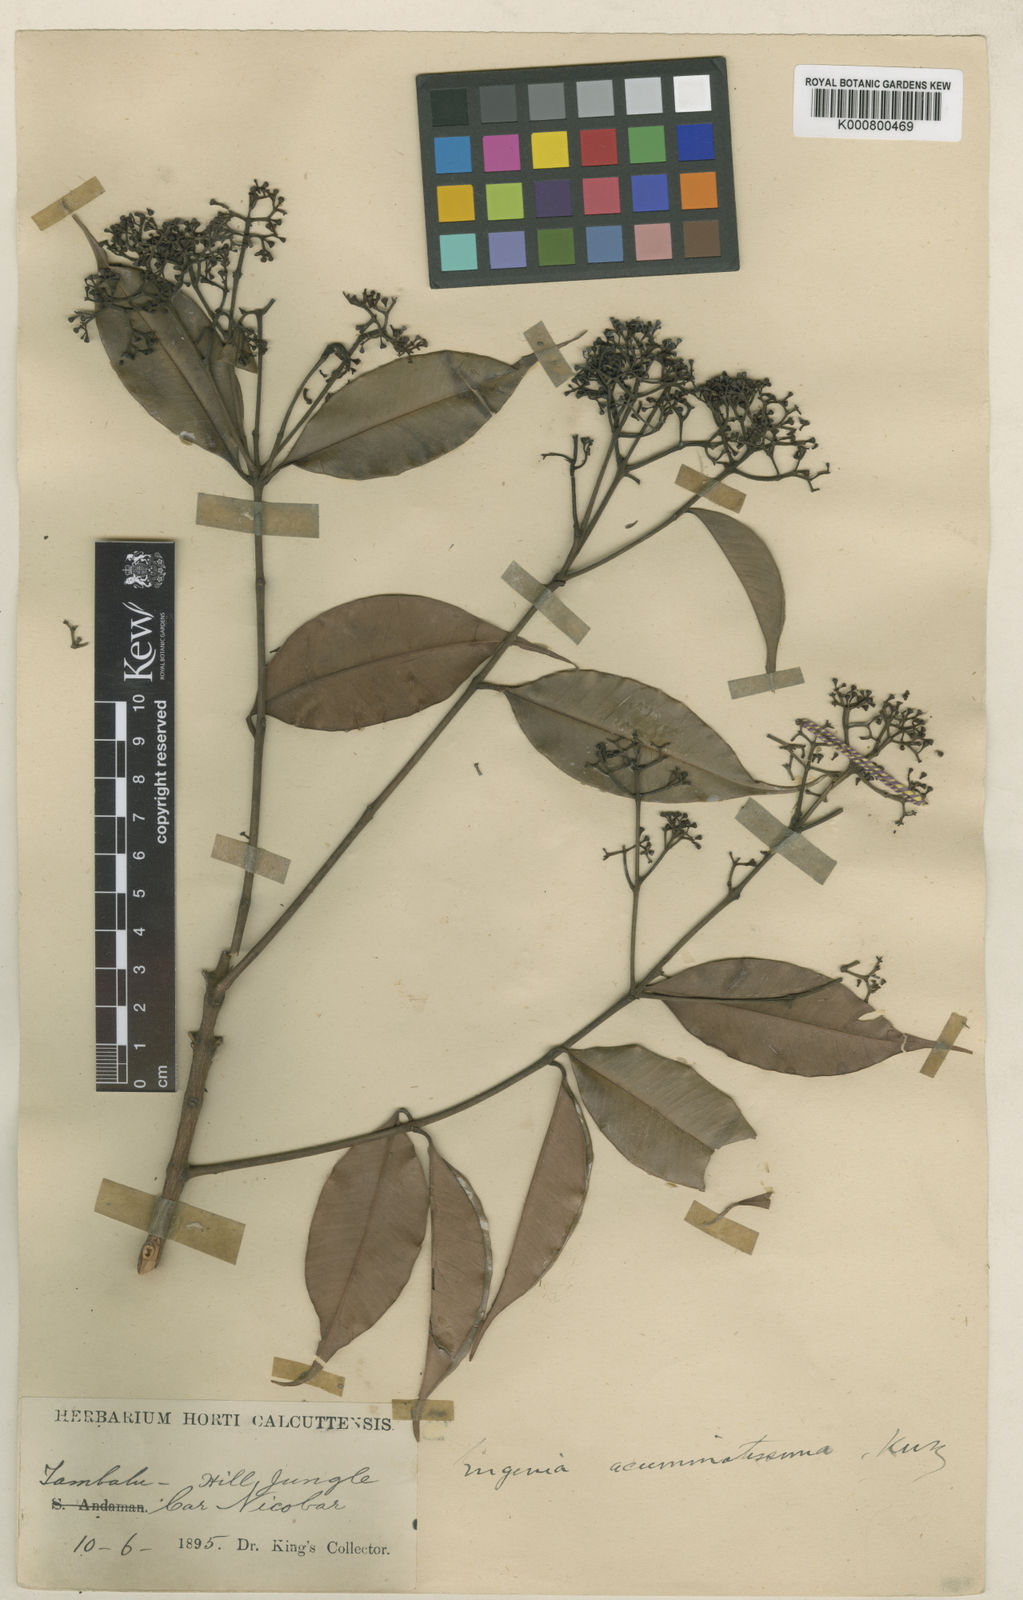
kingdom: Plantae
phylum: Tracheophyta
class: Magnoliopsida
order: Myrtales
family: Myrtaceae
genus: Syzygium
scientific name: Syzygium acuminatissimum
